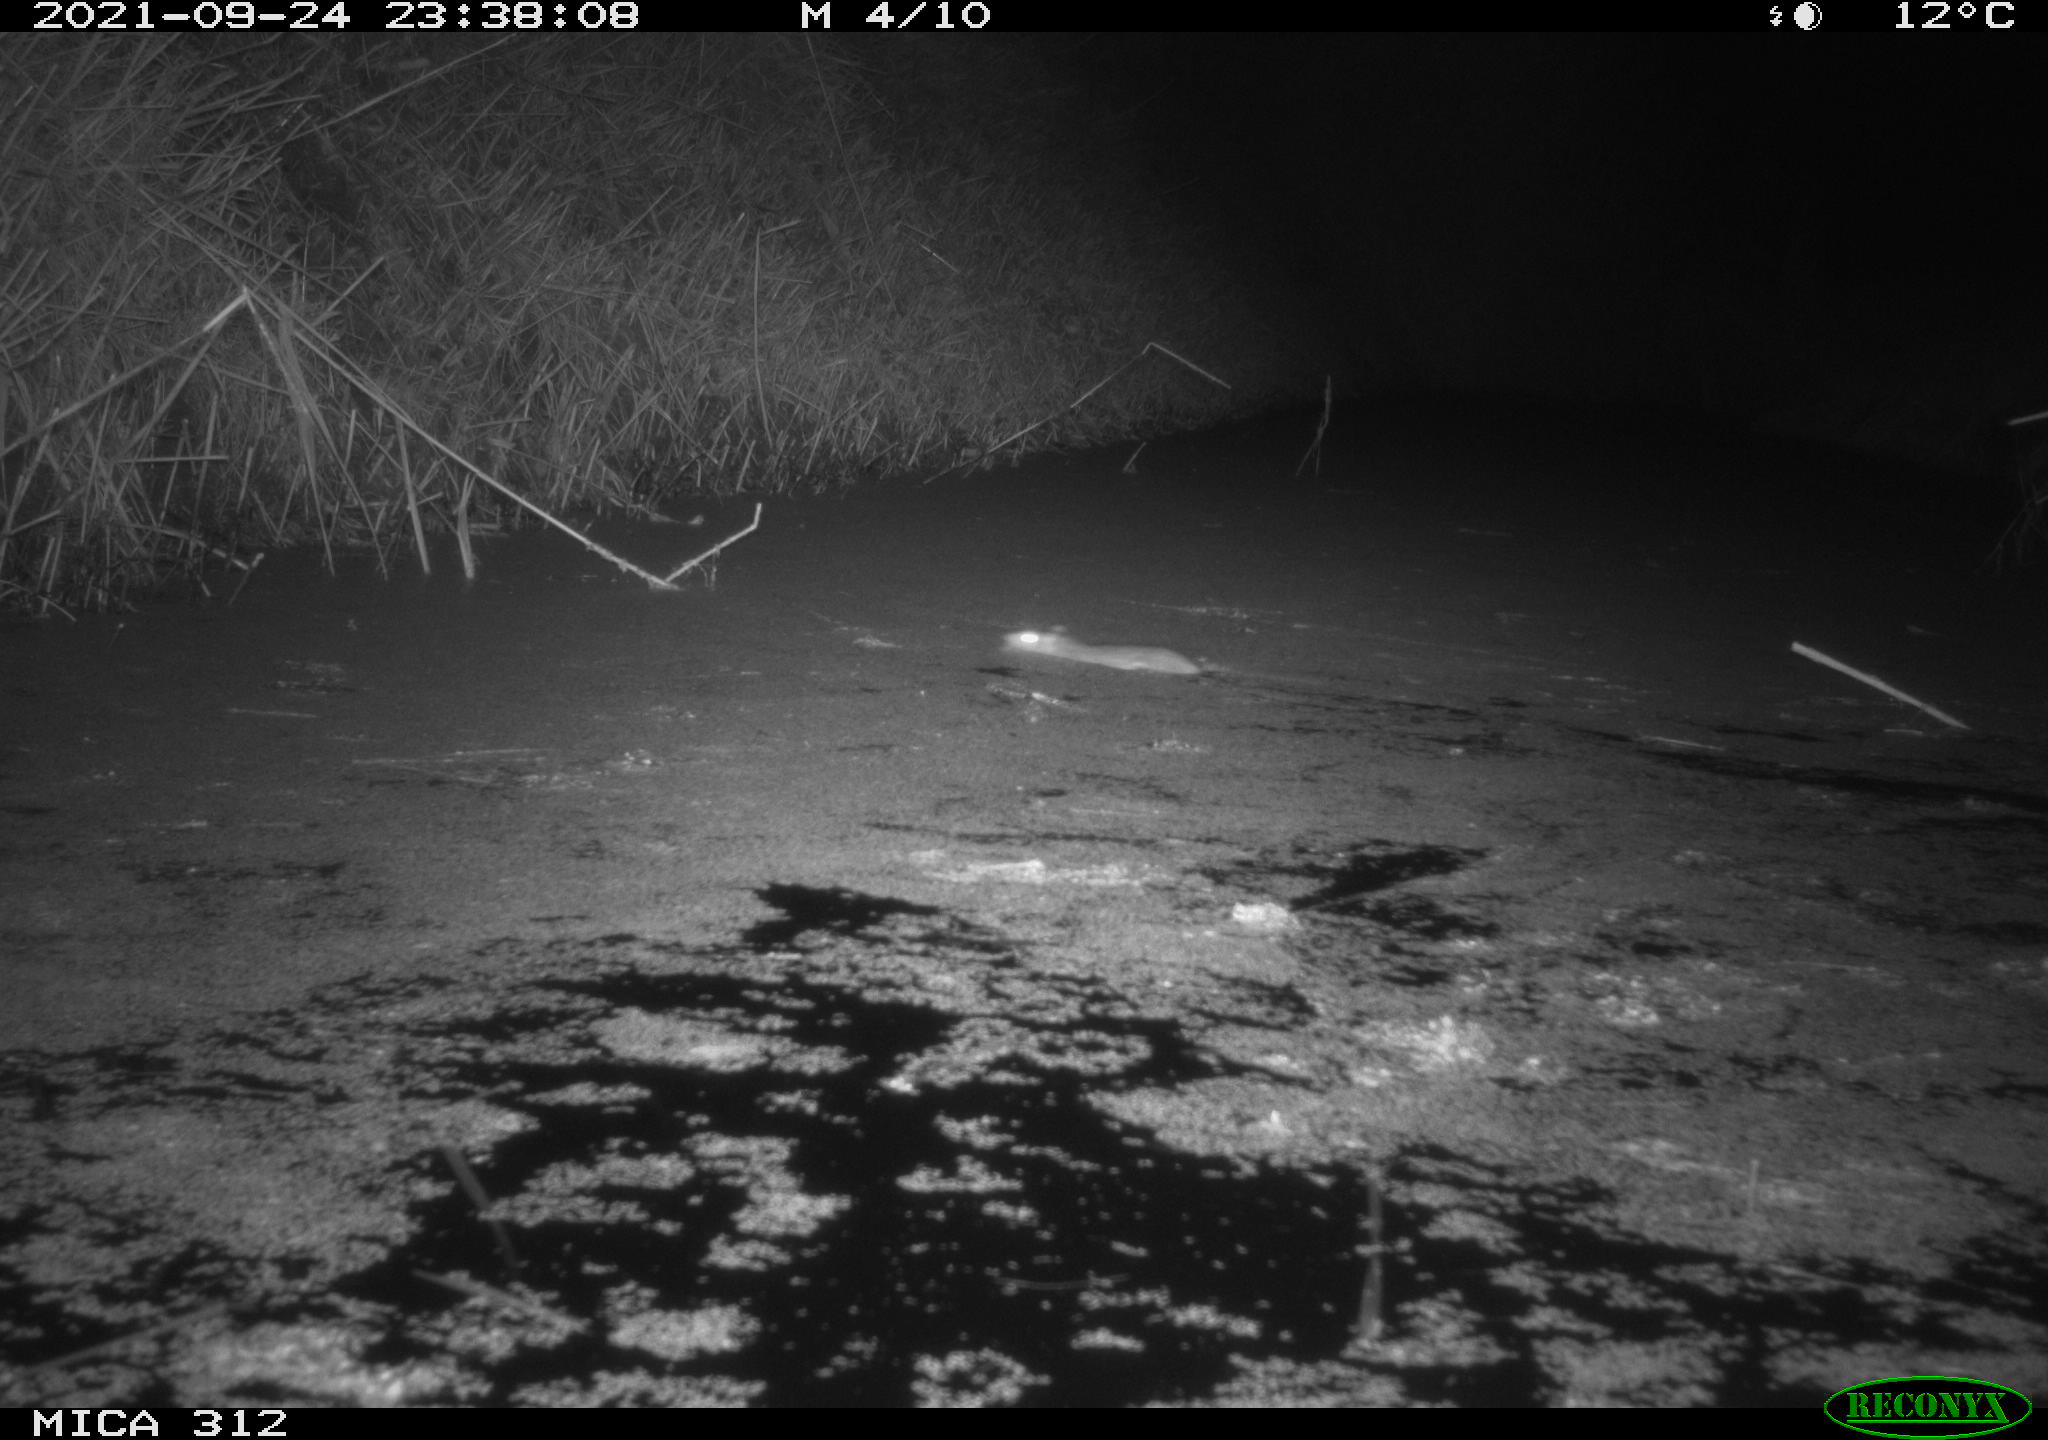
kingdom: Animalia
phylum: Chordata
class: Mammalia
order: Rodentia
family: Muridae
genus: Rattus
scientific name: Rattus norvegicus
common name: Brown rat
